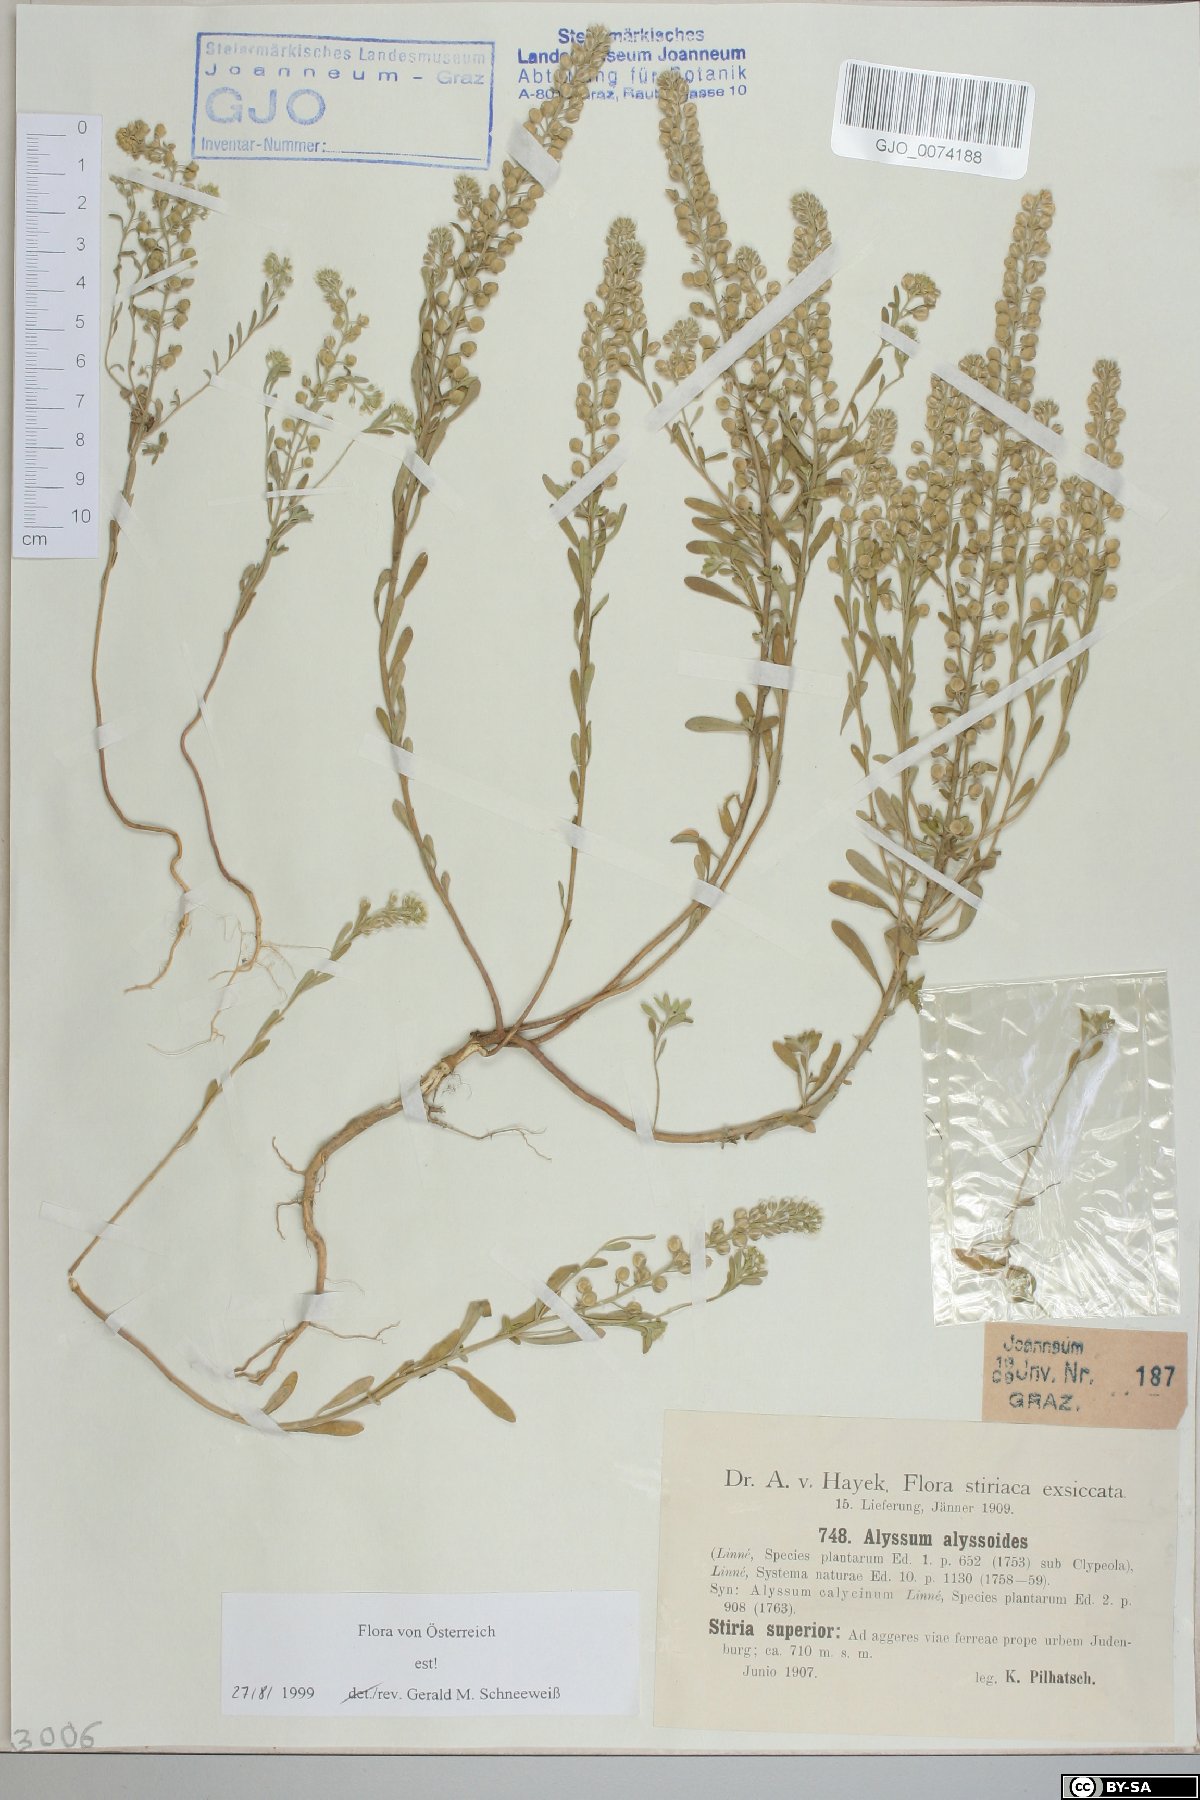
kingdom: Plantae
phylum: Tracheophyta
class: Magnoliopsida
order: Brassicales
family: Brassicaceae
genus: Alyssum
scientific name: Alyssum alyssoides
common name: Small alison
